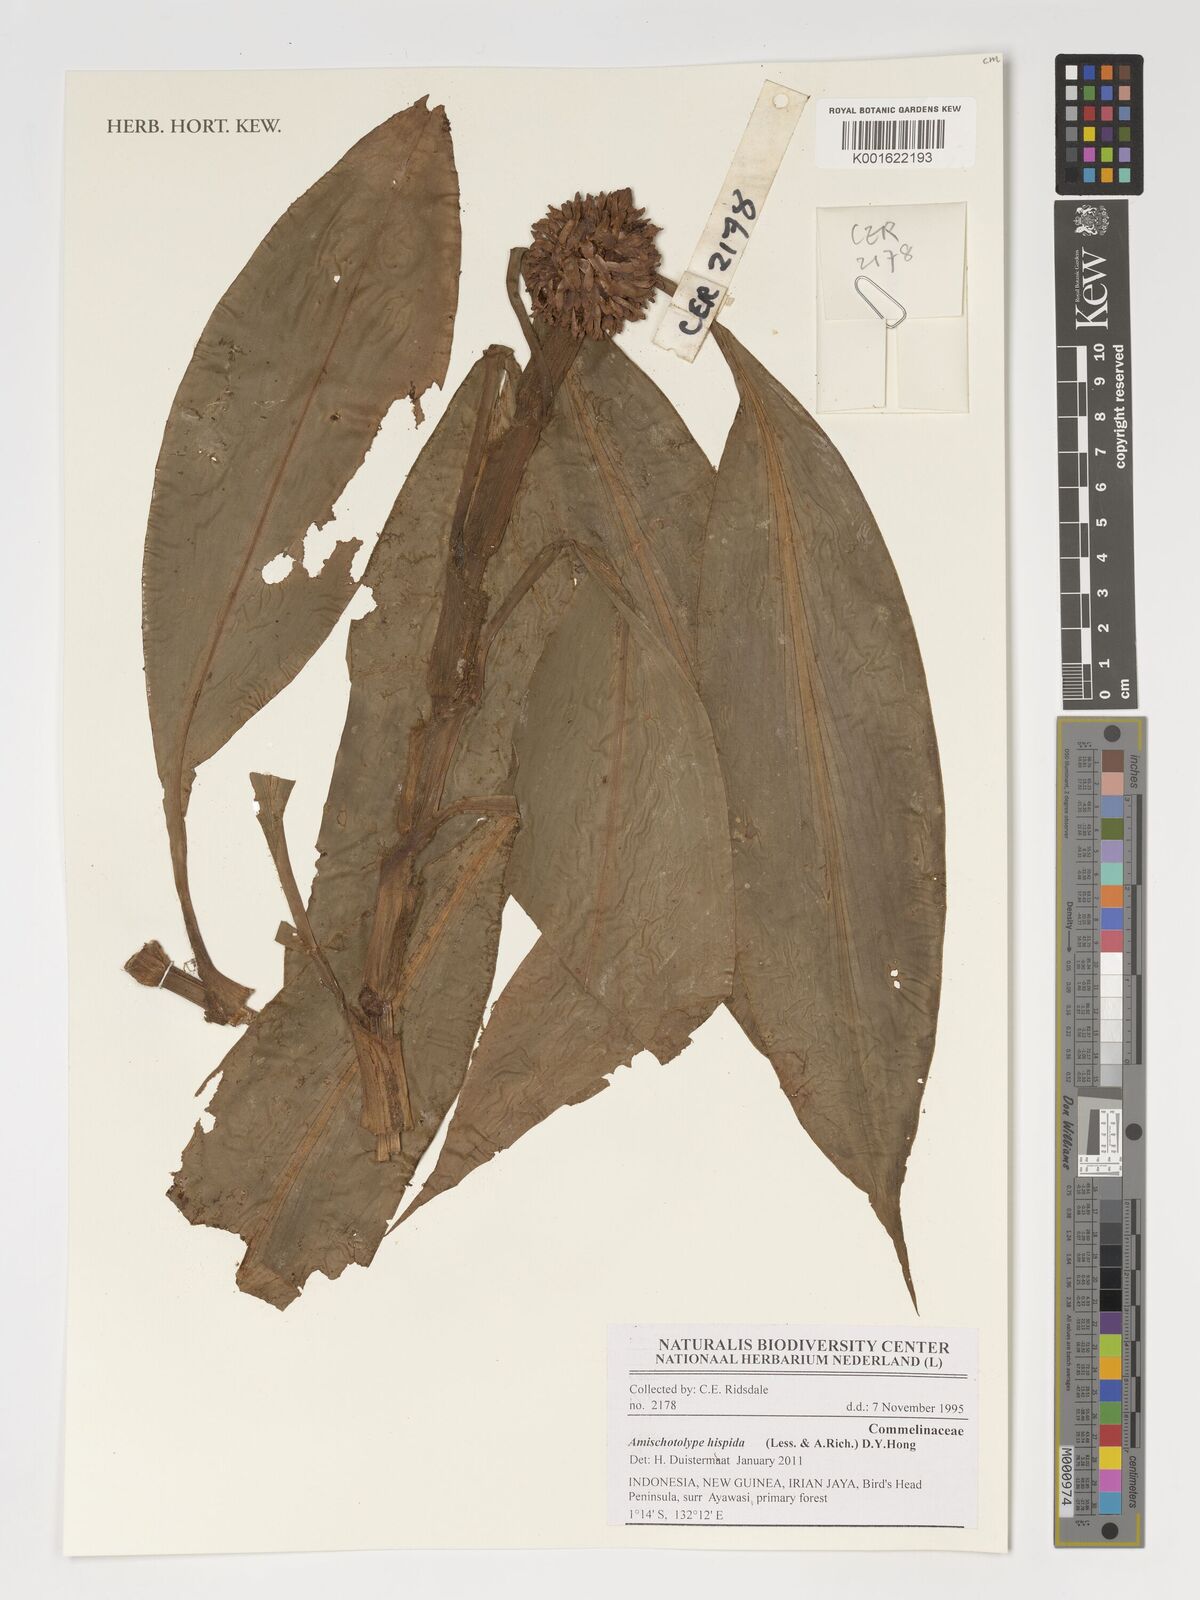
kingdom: Plantae
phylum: Tracheophyta
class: Liliopsida
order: Commelinales
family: Commelinaceae
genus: Amischotolype
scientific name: Amischotolype hispida
